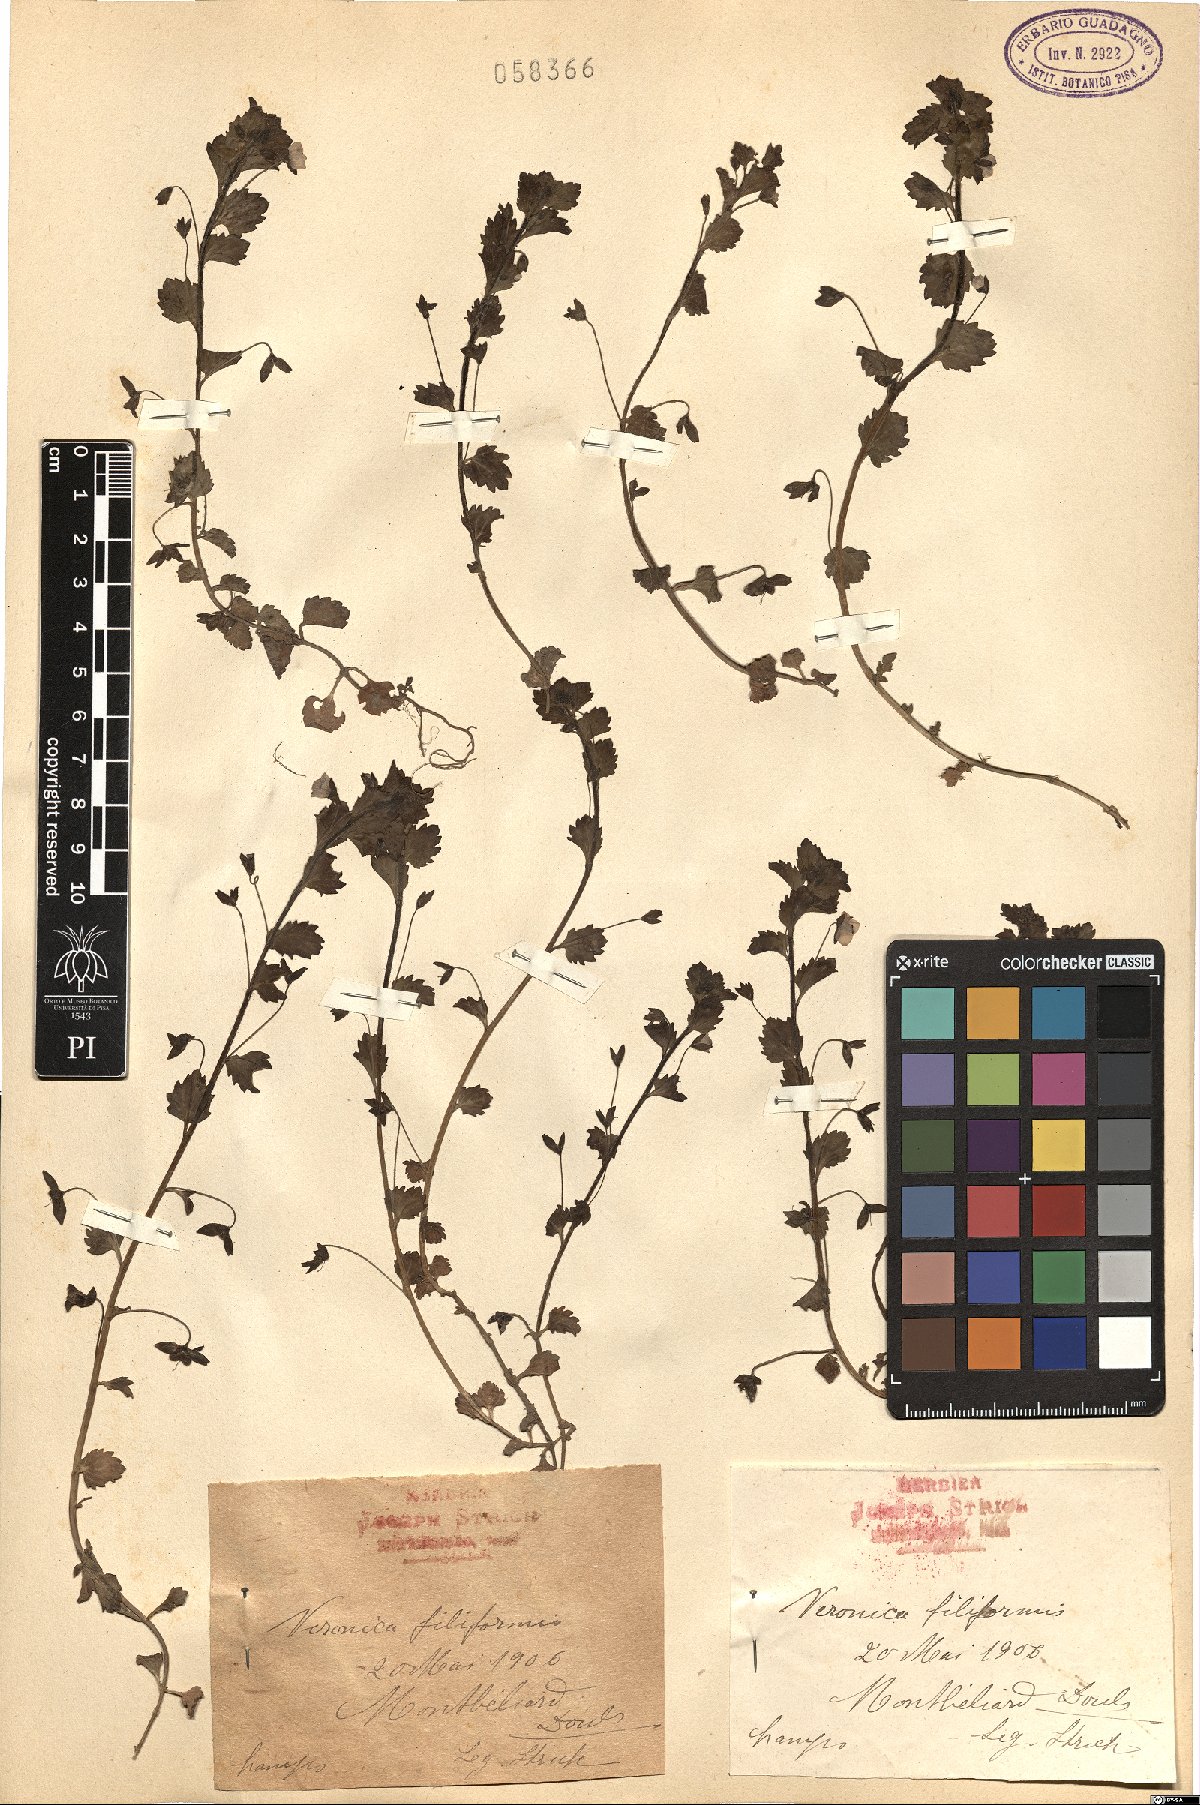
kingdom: Plantae
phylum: Tracheophyta
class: Magnoliopsida
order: Lamiales
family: Plantaginaceae
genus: Veronica
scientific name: Veronica filiformis
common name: Slender speedwell
